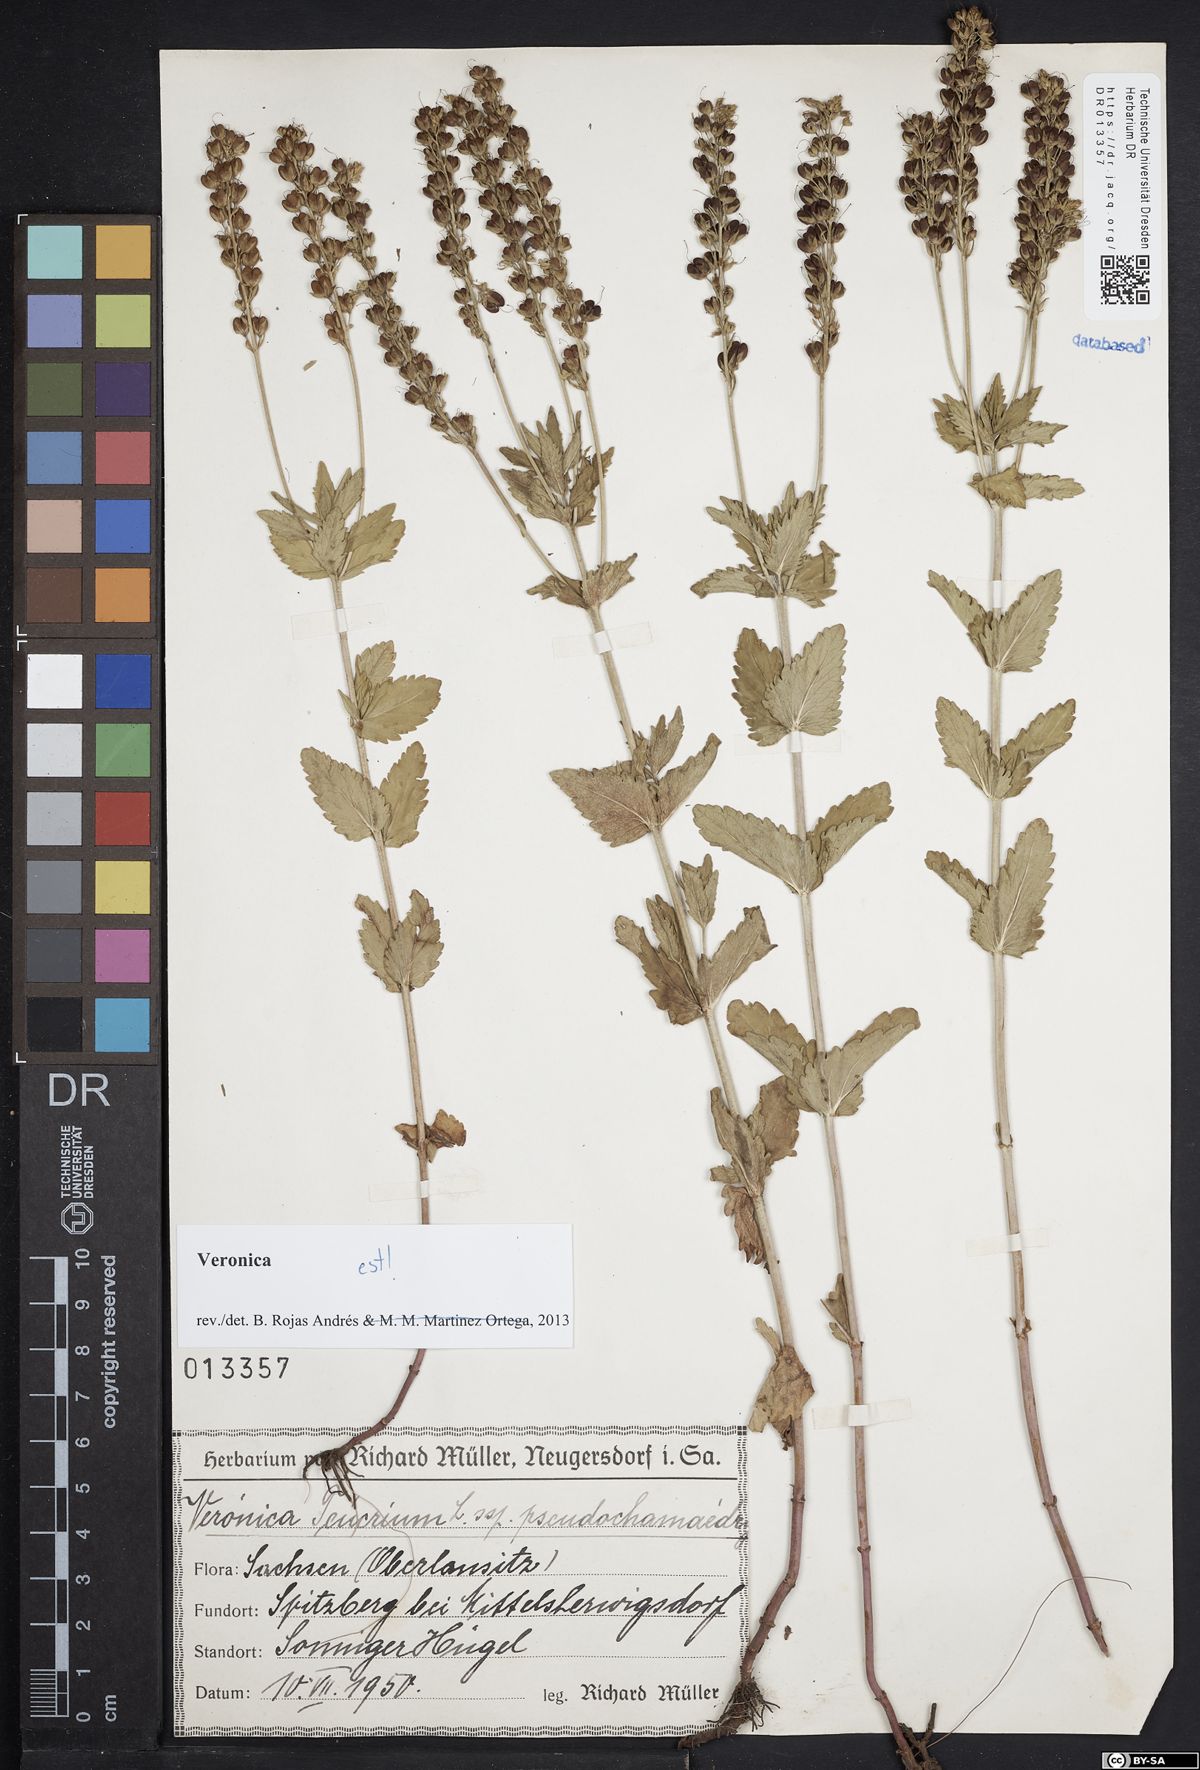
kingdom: Plantae
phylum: Tracheophyta
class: Magnoliopsida
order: Lamiales
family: Plantaginaceae
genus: Veronica
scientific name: Veronica teucrium
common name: Large speedwell
